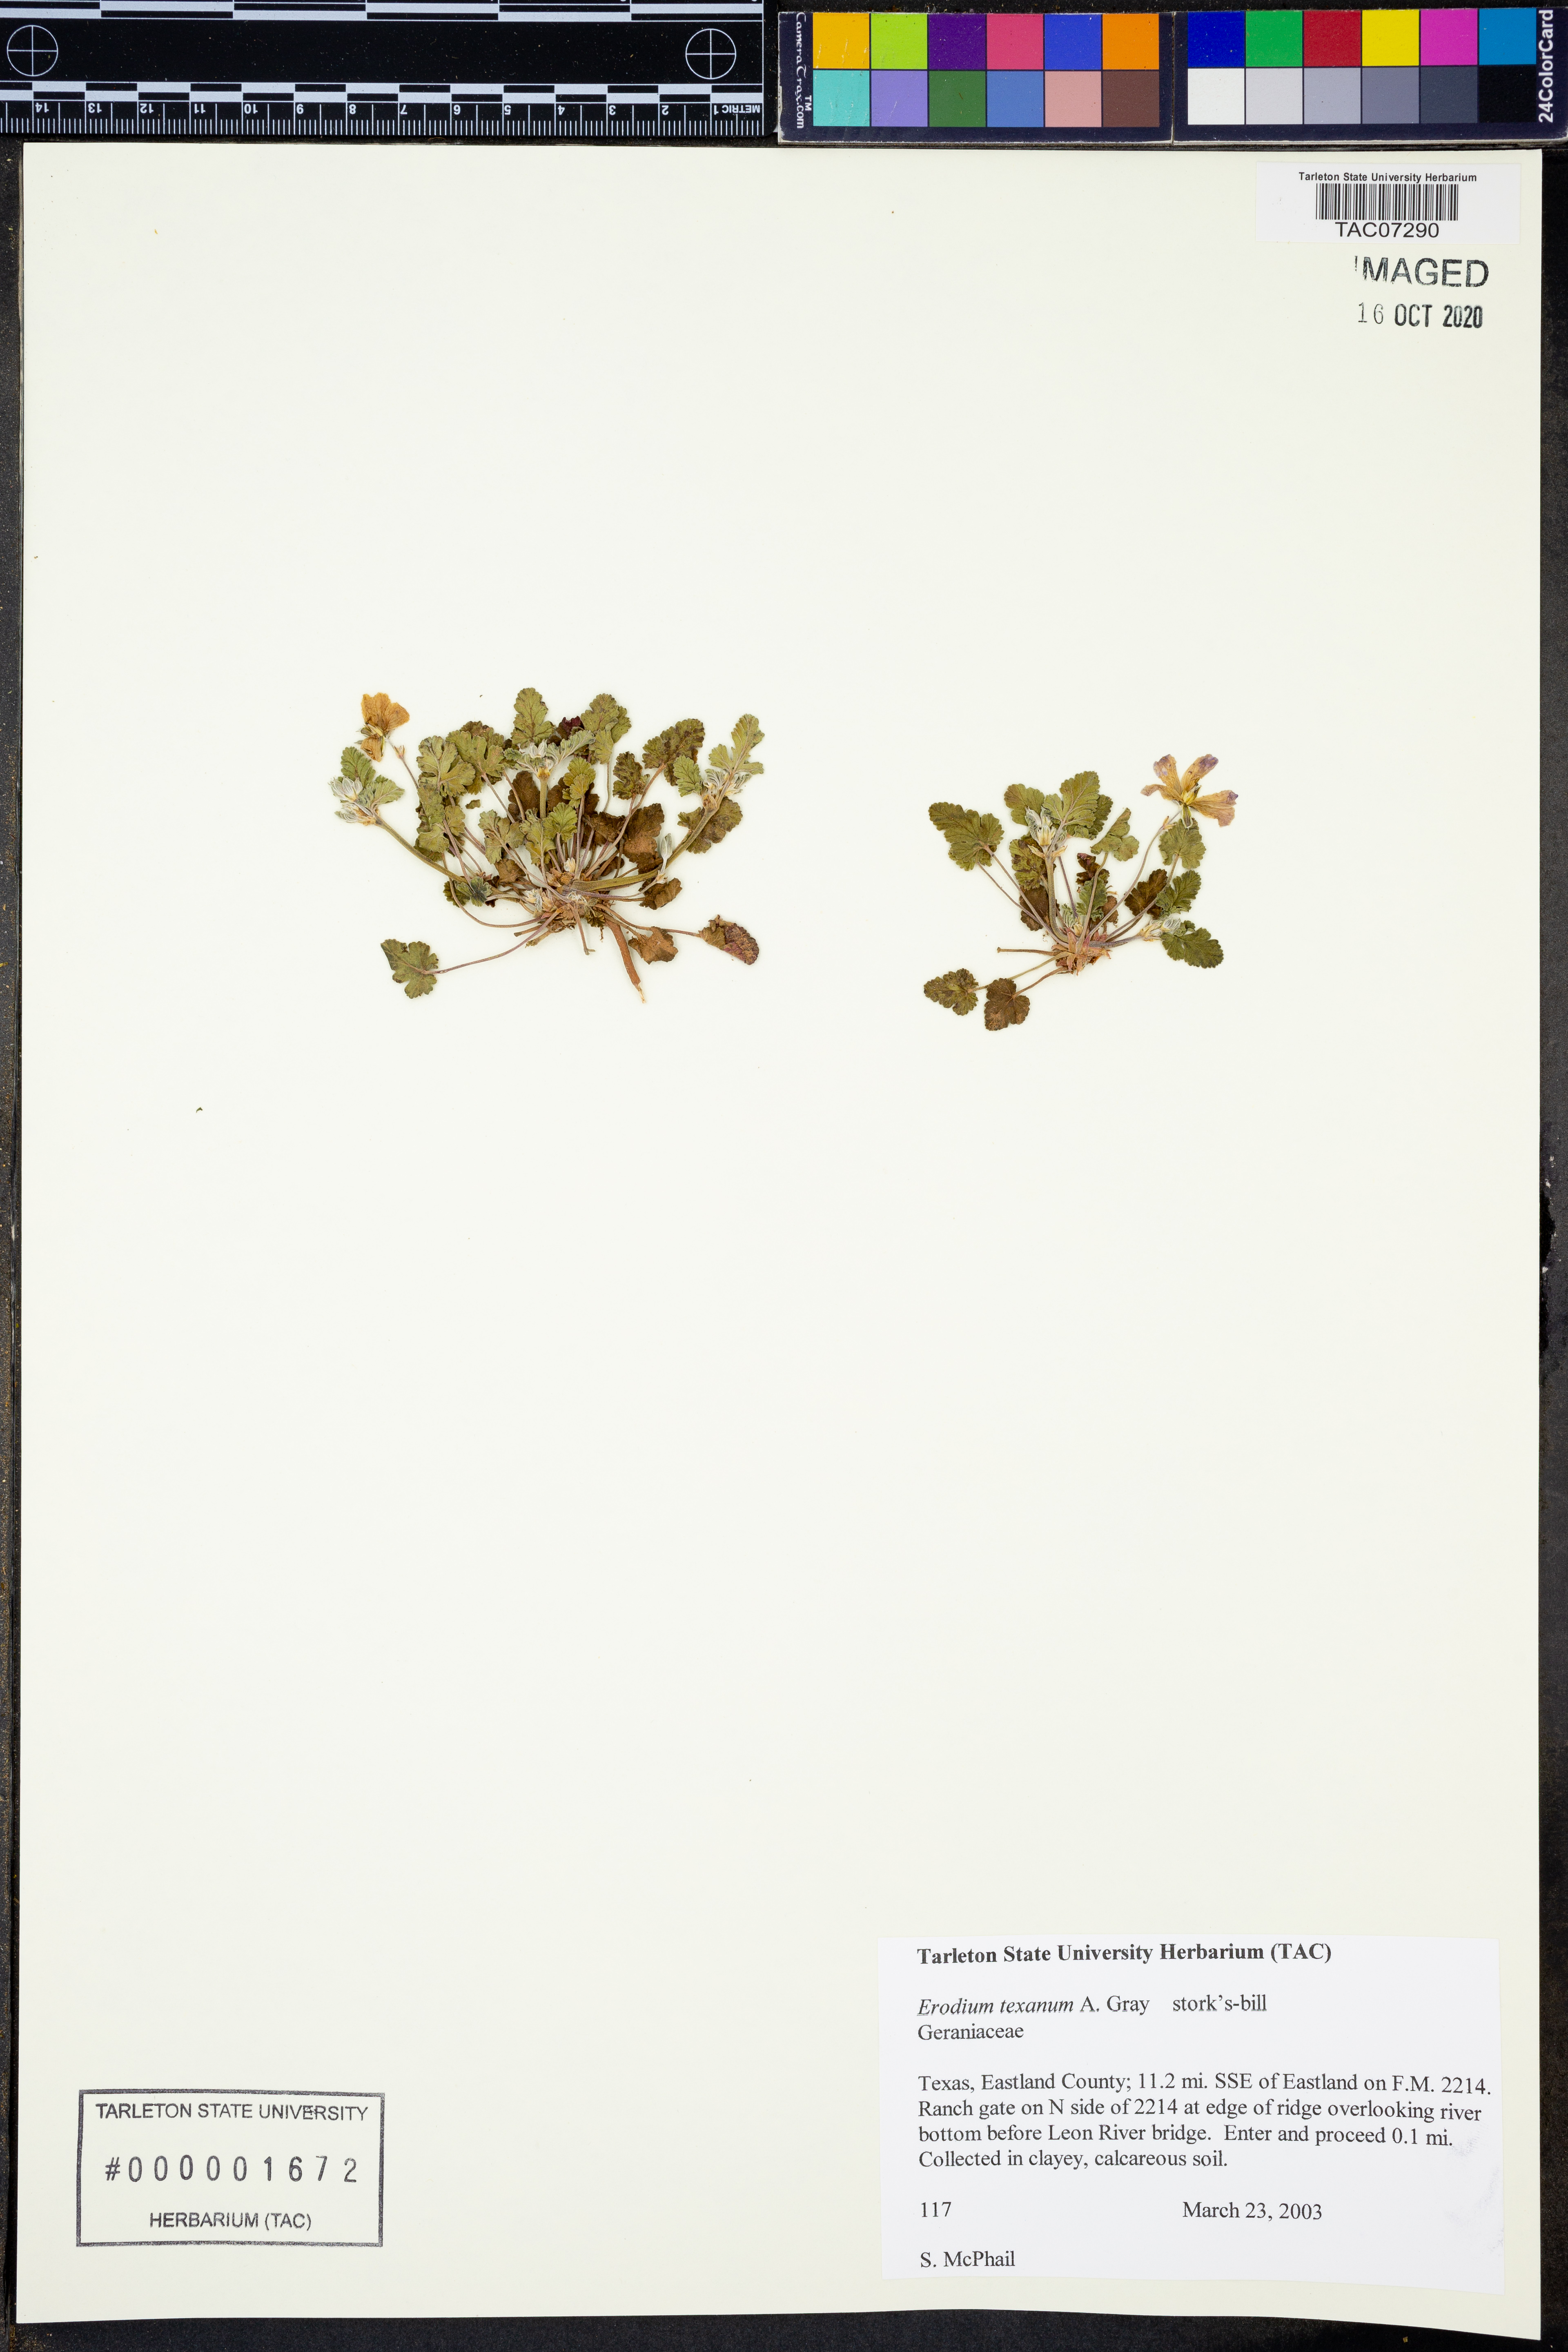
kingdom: Plantae
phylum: Tracheophyta
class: Magnoliopsida
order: Geraniales
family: Geraniaceae
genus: Erodium
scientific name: Erodium texanum
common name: Texas stork's-bill
